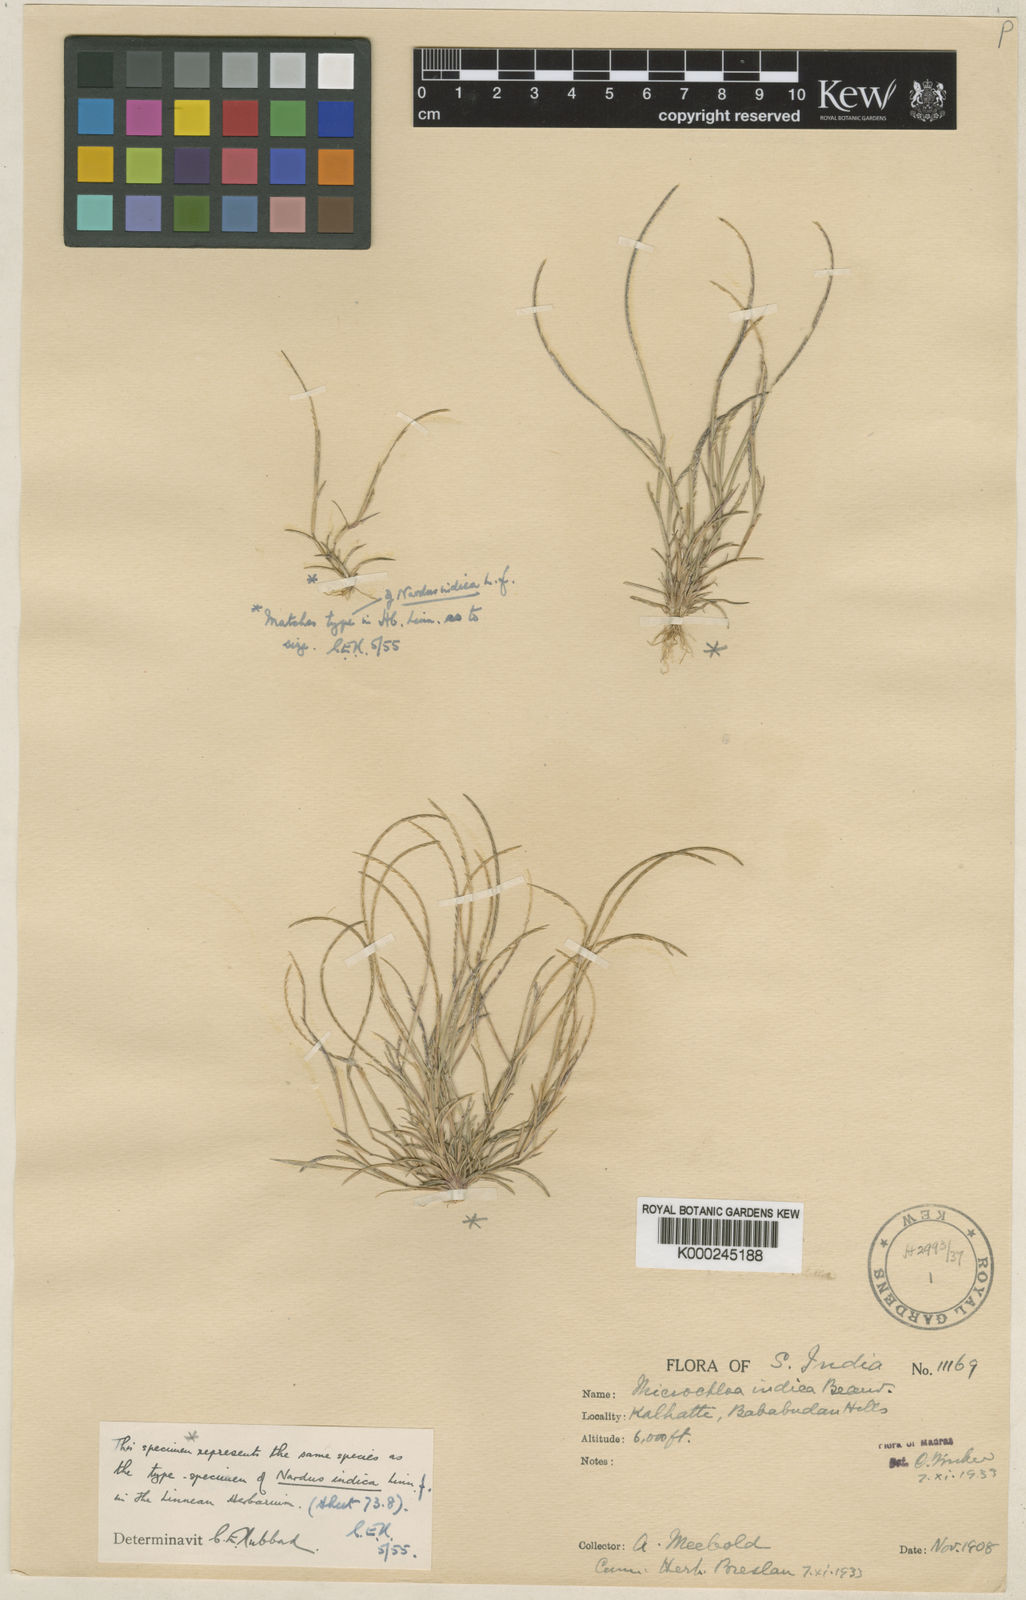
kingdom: Plantae
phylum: Tracheophyta
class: Liliopsida
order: Poales
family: Poaceae
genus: Microchloa
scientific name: Microchloa indica
